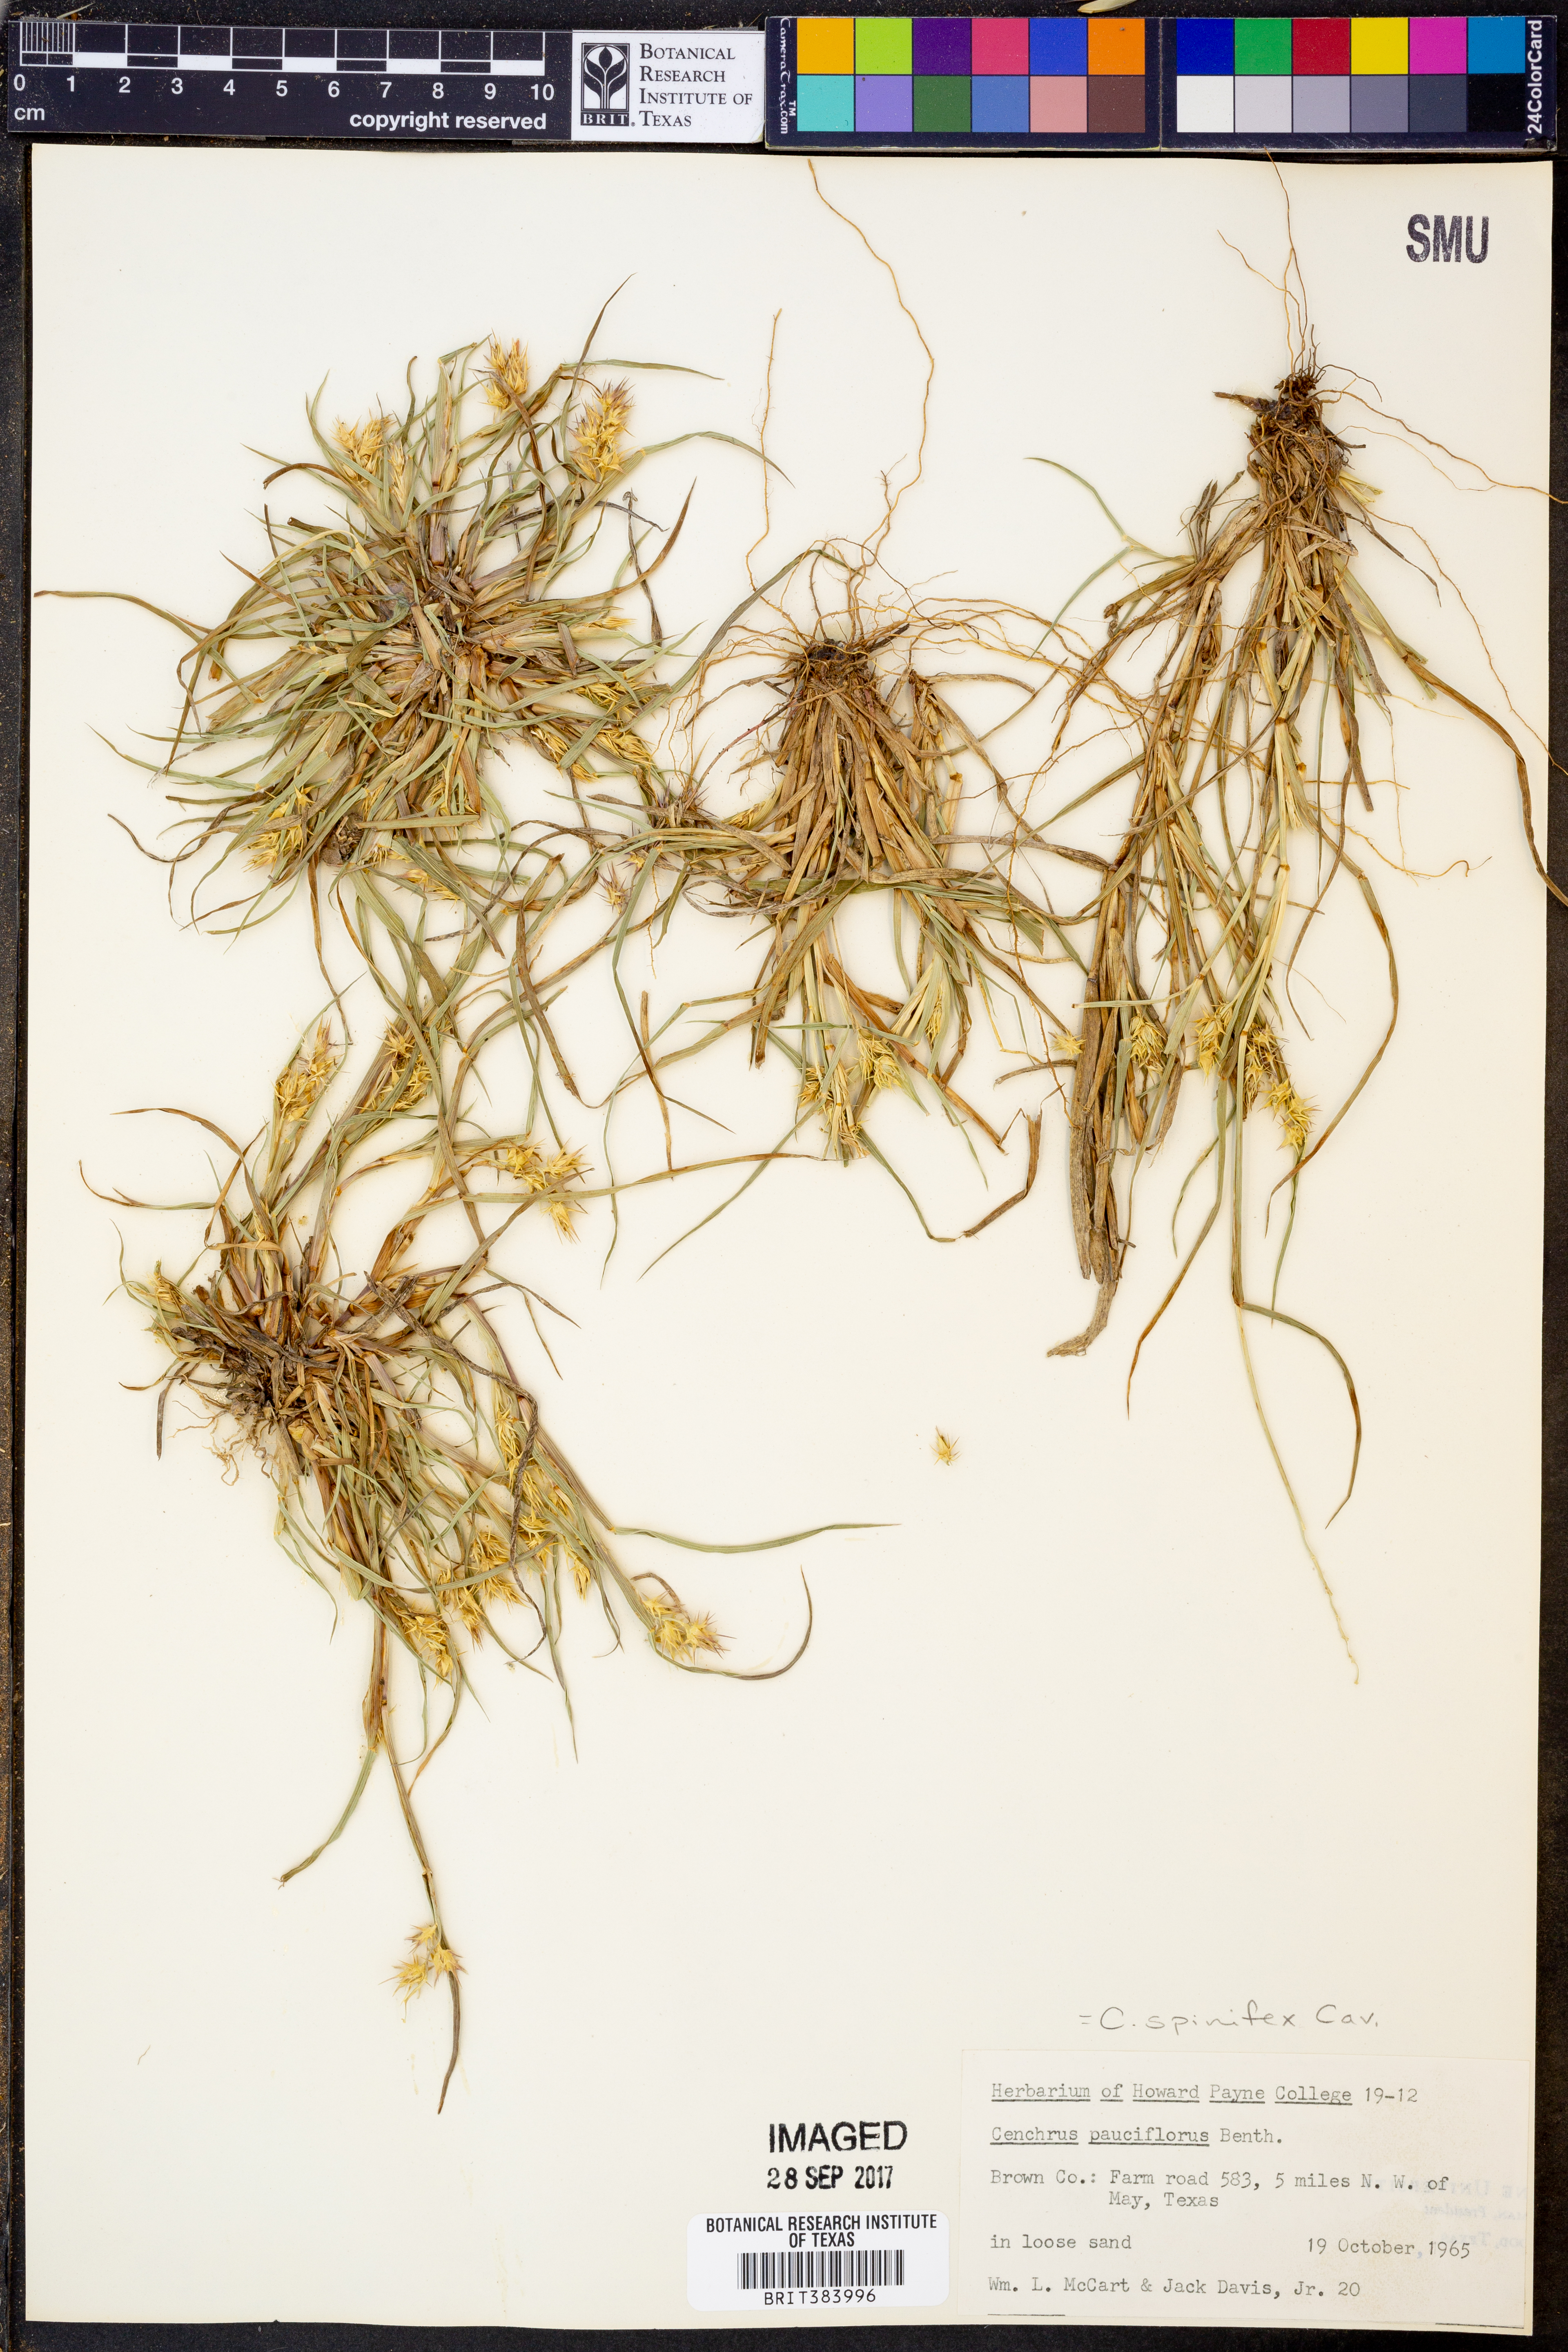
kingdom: Plantae
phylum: Tracheophyta
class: Liliopsida
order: Poales
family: Poaceae
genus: Cenchrus
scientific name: Cenchrus spinifex
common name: Coast sandbur
